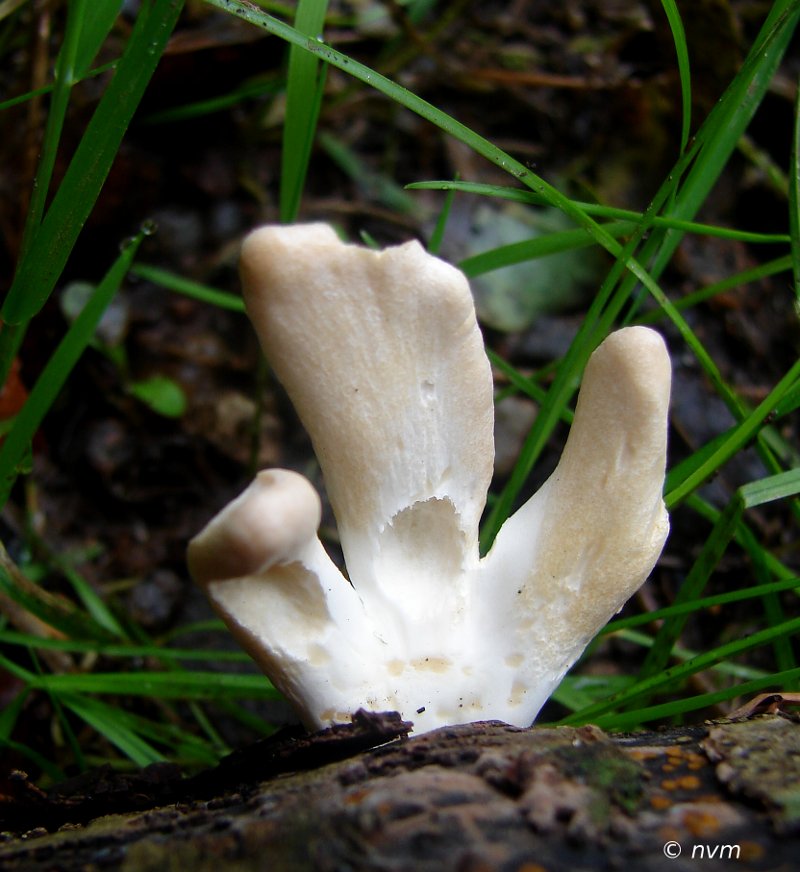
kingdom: Fungi
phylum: Ascomycota
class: Sordariomycetes
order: Hypocreales
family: Hypocreaceae
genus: Trichoderma
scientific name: Trichoderma alutaceum
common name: gevir-kødkerne
